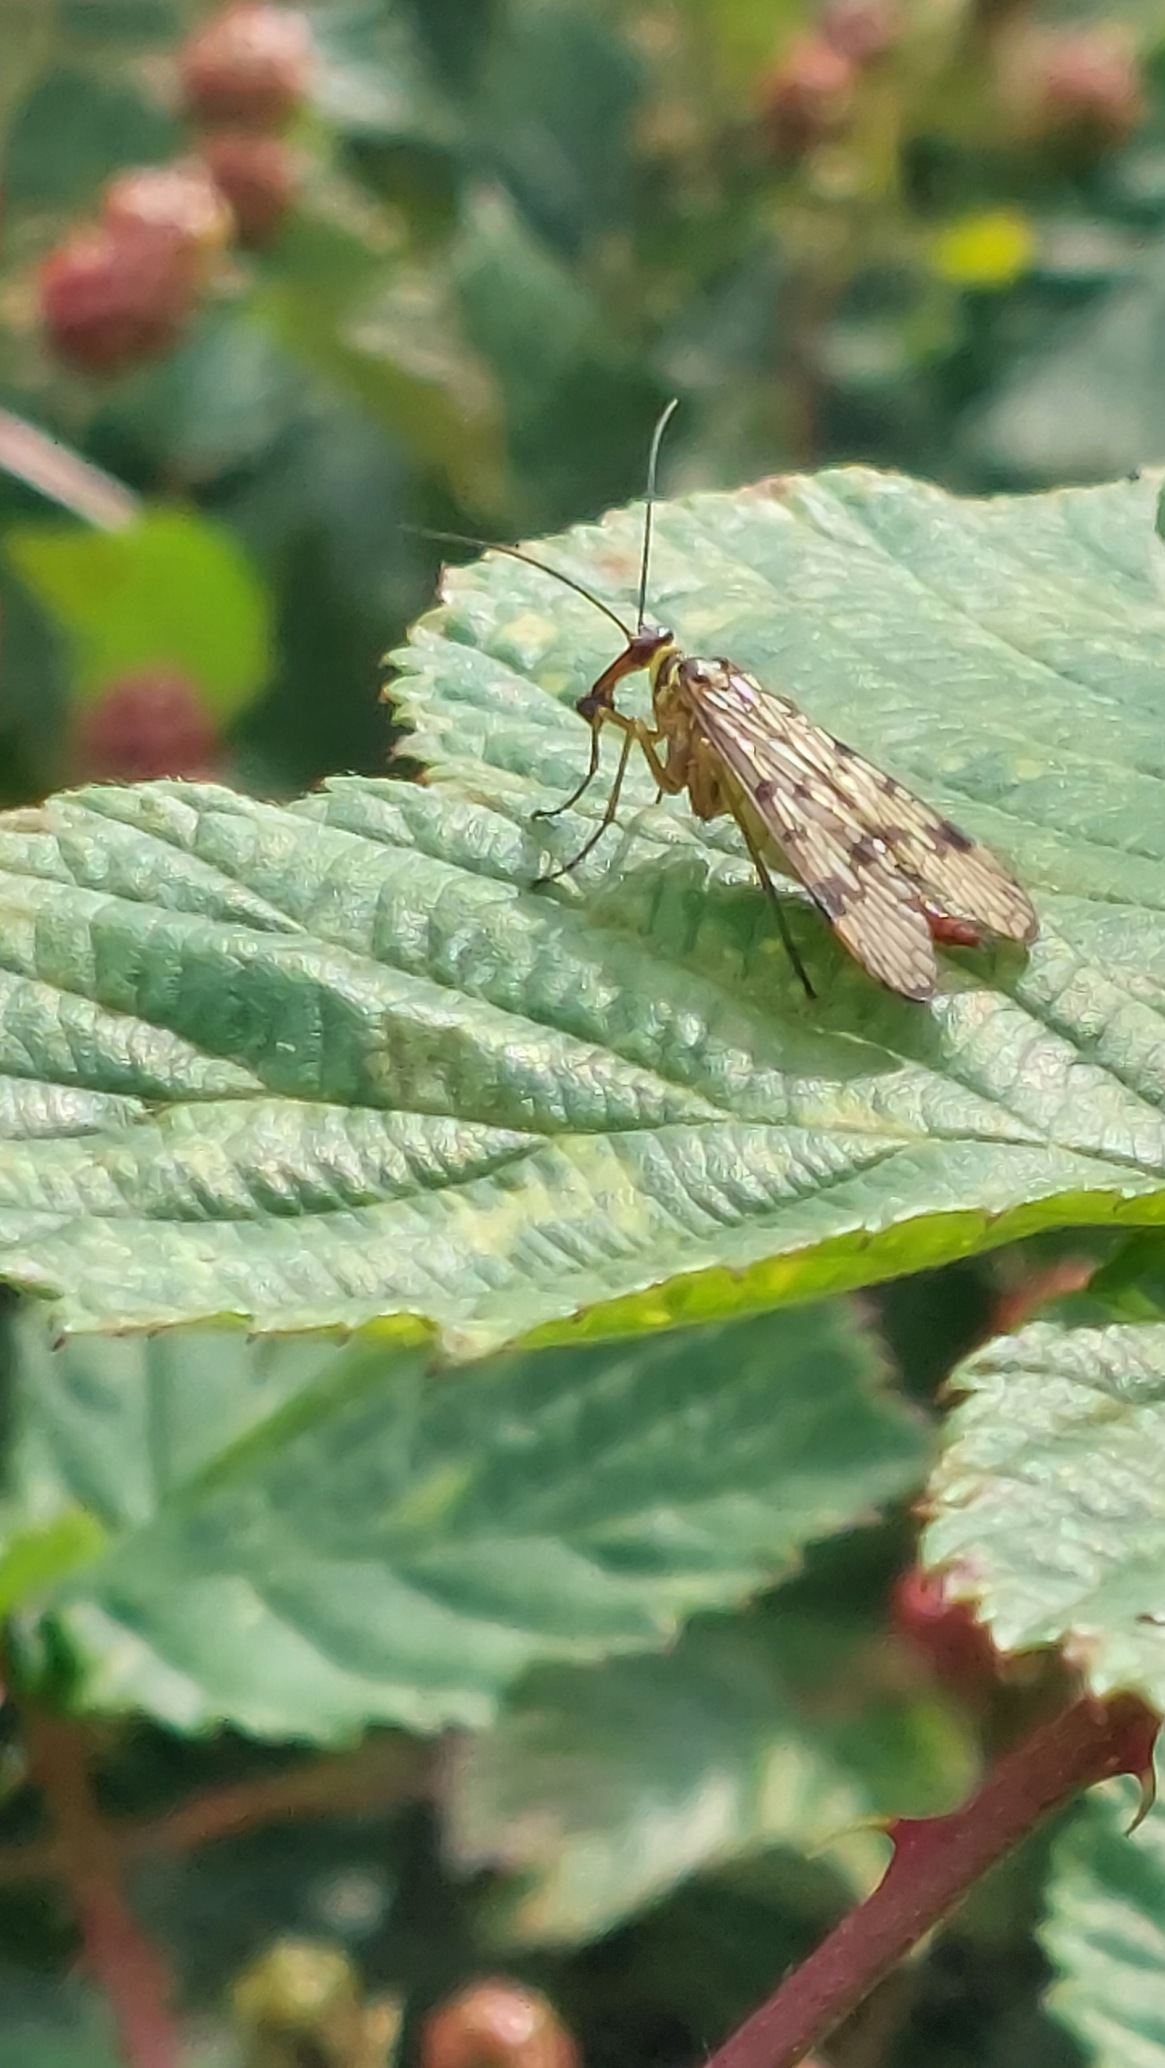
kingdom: Animalia
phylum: Arthropoda
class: Insecta
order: Mecoptera
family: Panorpidae
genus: Panorpa
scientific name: Panorpa
